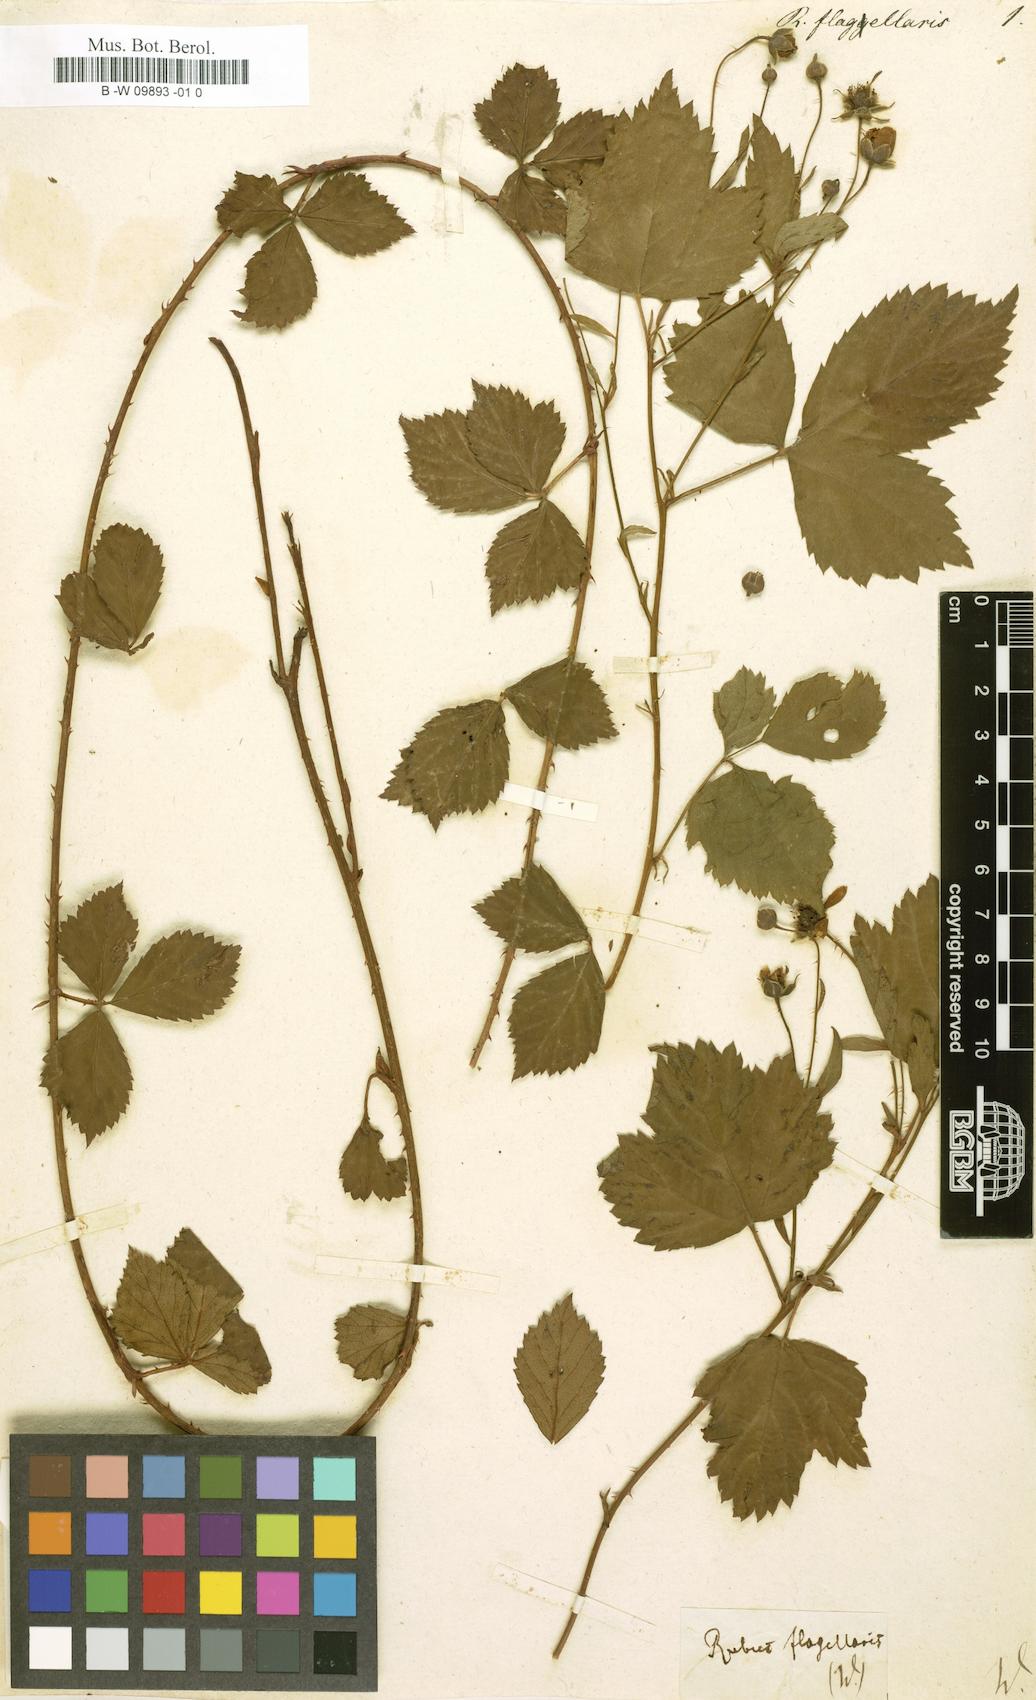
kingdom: Plantae
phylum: Tracheophyta
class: Magnoliopsida
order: Rosales
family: Rosaceae
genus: Rubus
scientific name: Rubus flagellaris
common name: American dewberry
